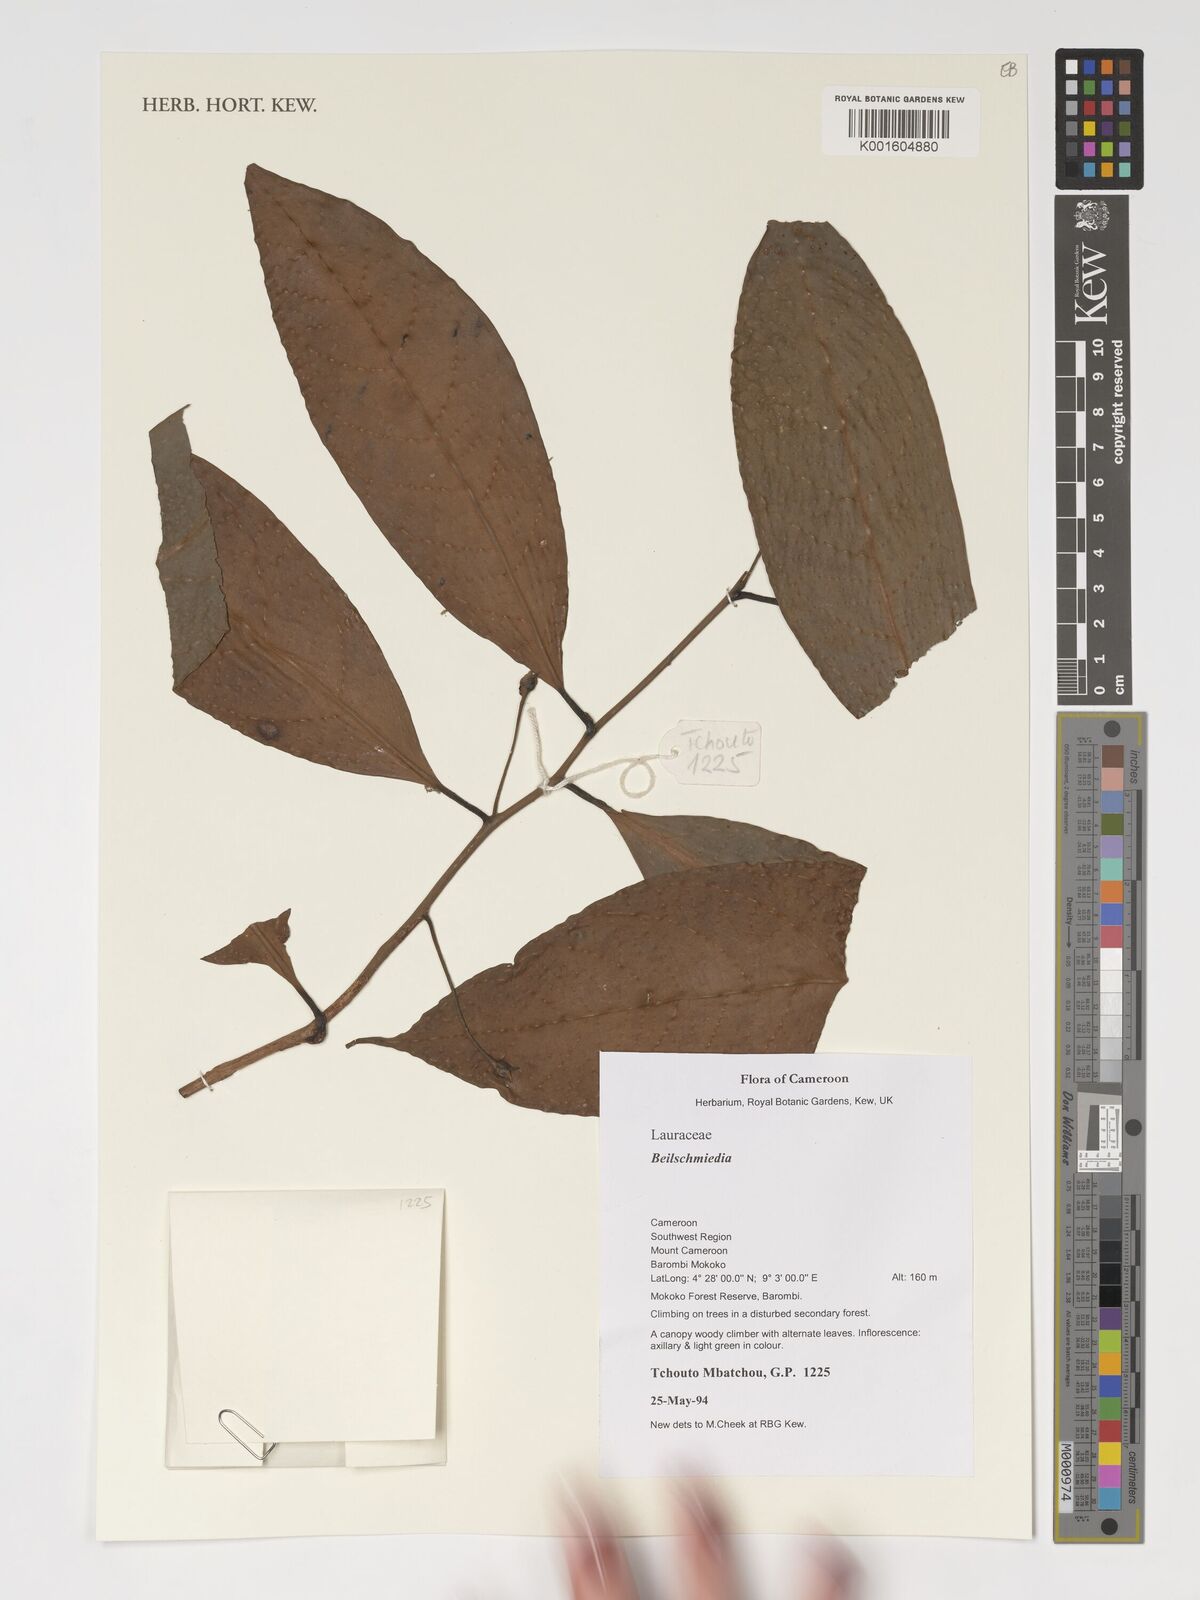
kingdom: Plantae
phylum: Tracheophyta
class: Magnoliopsida
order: Laurales
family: Lauraceae
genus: Beilschmiedia
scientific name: Beilschmiedia
